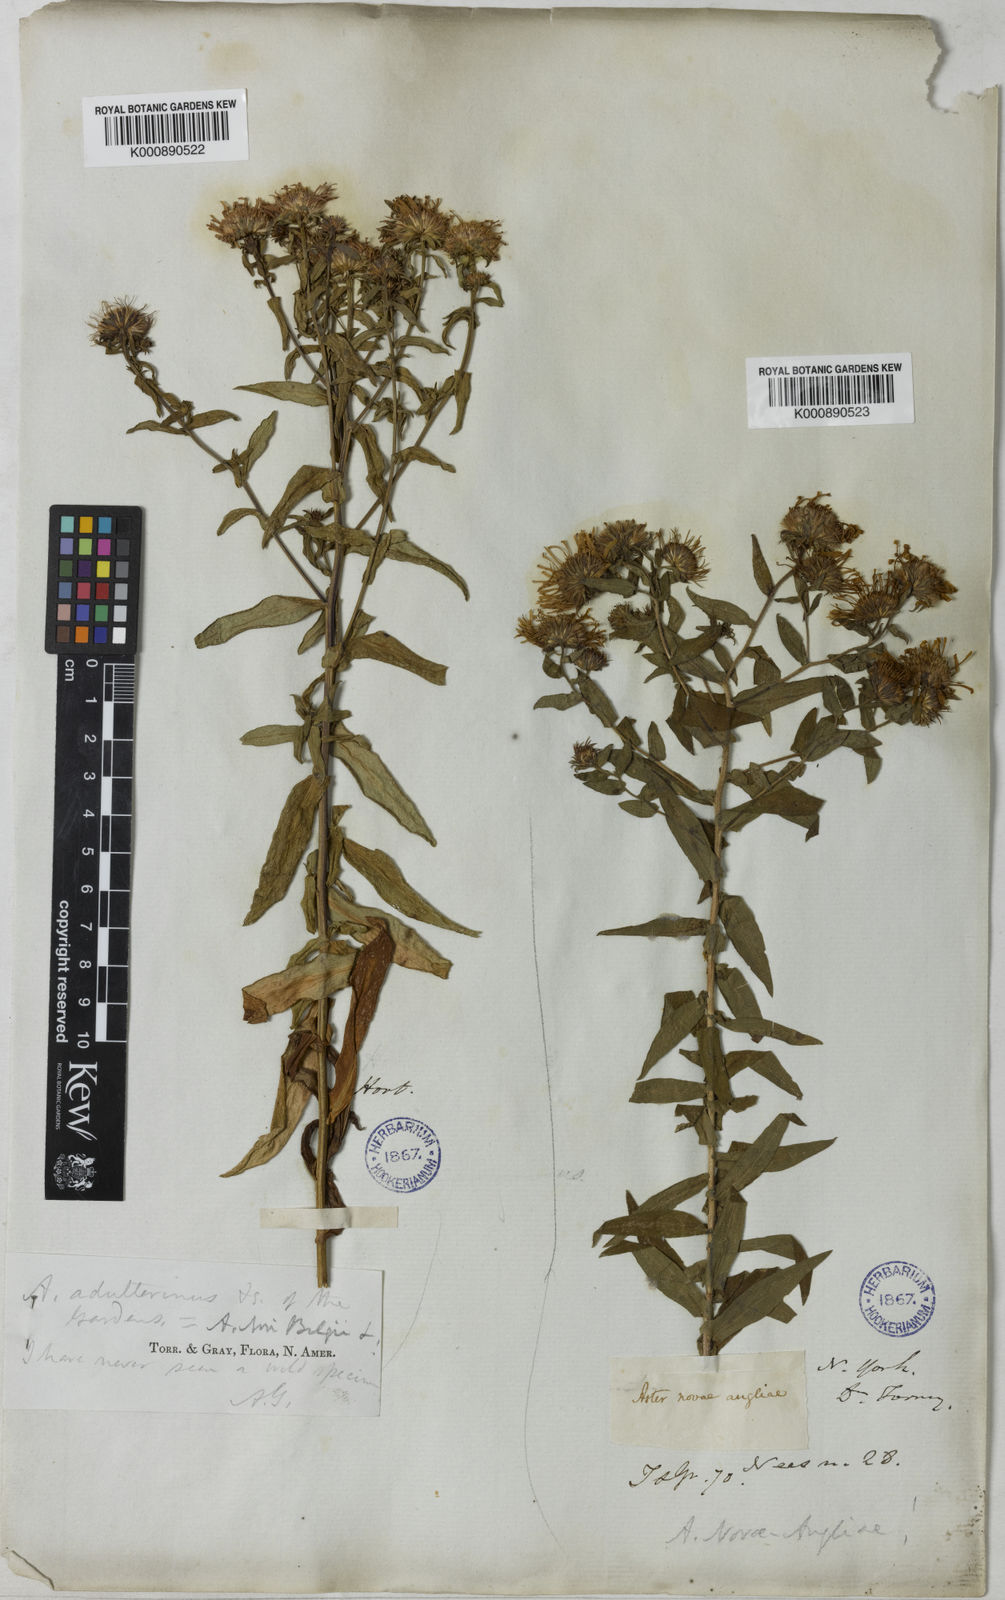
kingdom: Plantae
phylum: Tracheophyta
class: Magnoliopsida
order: Asterales
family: Asteraceae
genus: Symphyotrichum
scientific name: Symphyotrichum novi-belgii
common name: Michaelmas daisy
